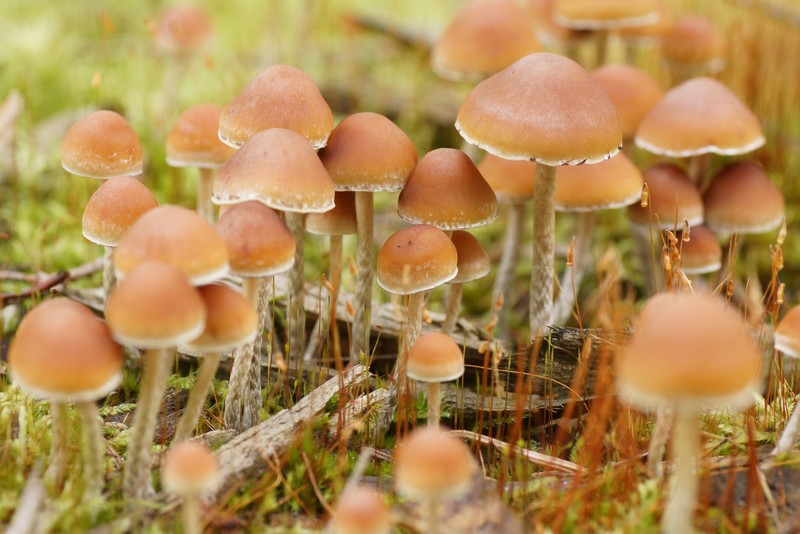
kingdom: Fungi
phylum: Basidiomycota
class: Agaricomycetes
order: Agaricales
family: Strophariaceae
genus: Hypholoma
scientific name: Hypholoma marginatum
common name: enlig svovlhat
